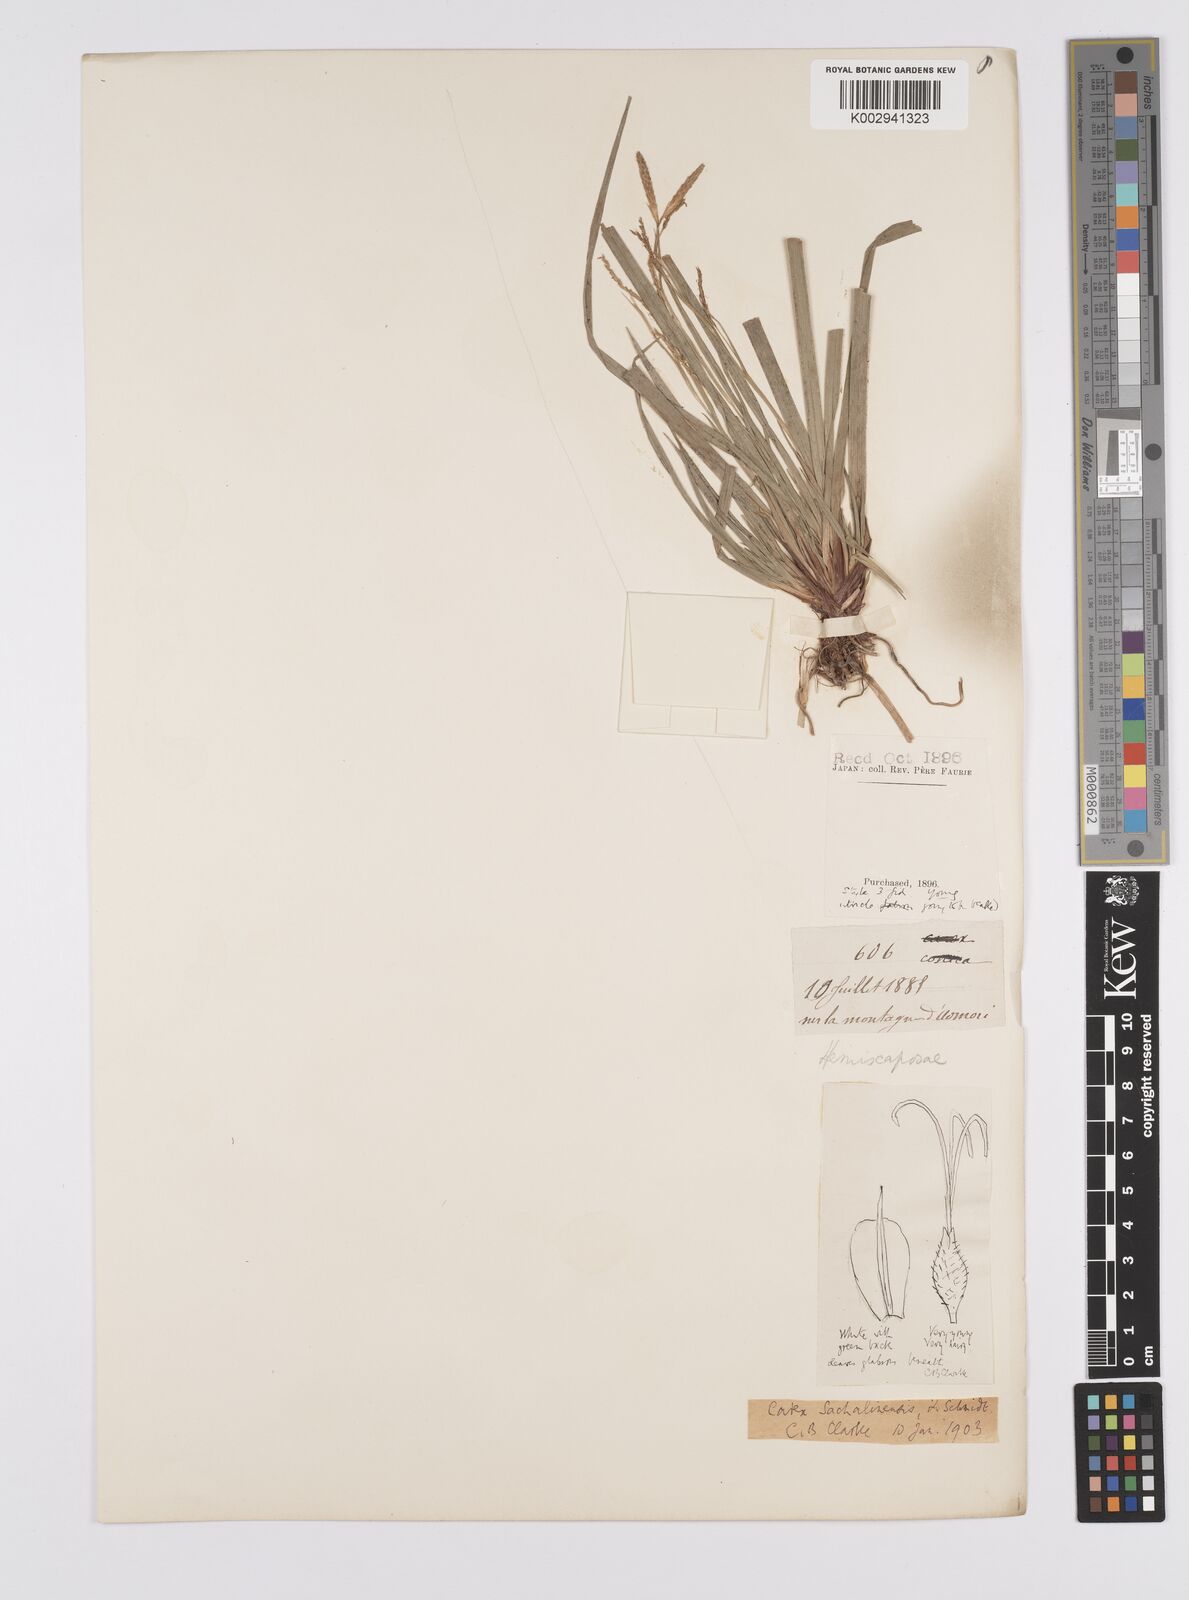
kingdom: Plantae
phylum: Tracheophyta
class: Liliopsida
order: Poales
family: Cyperaceae
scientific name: Cyperaceae
